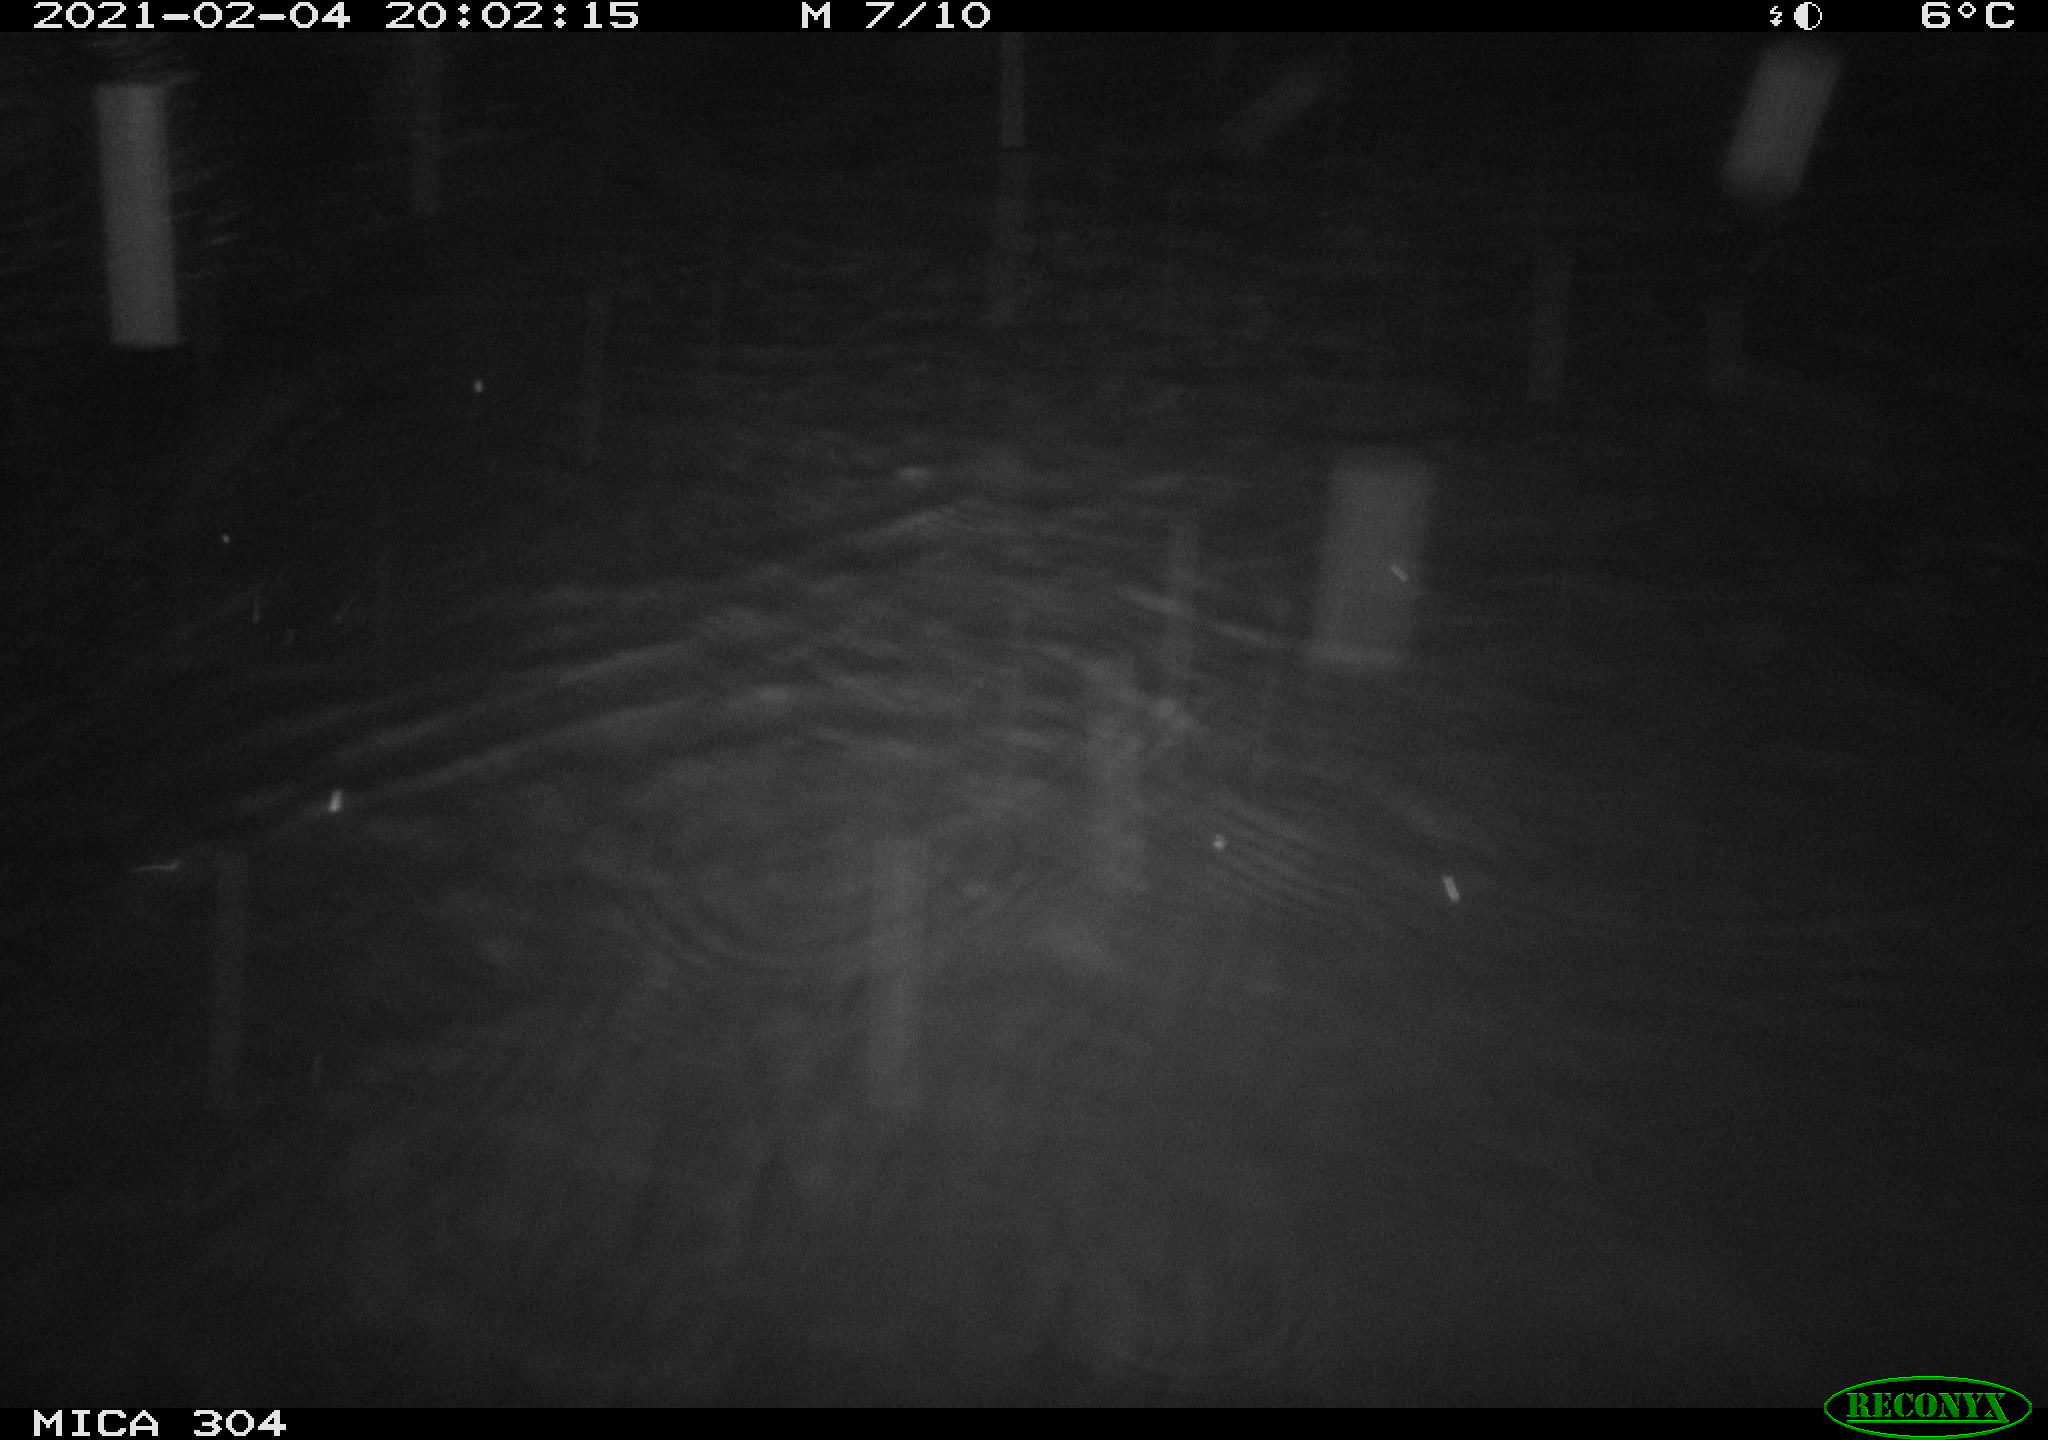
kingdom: Animalia
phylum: Chordata
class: Mammalia
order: Rodentia
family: Cricetidae
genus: Ondatra
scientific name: Ondatra zibethicus
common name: Muskrat
